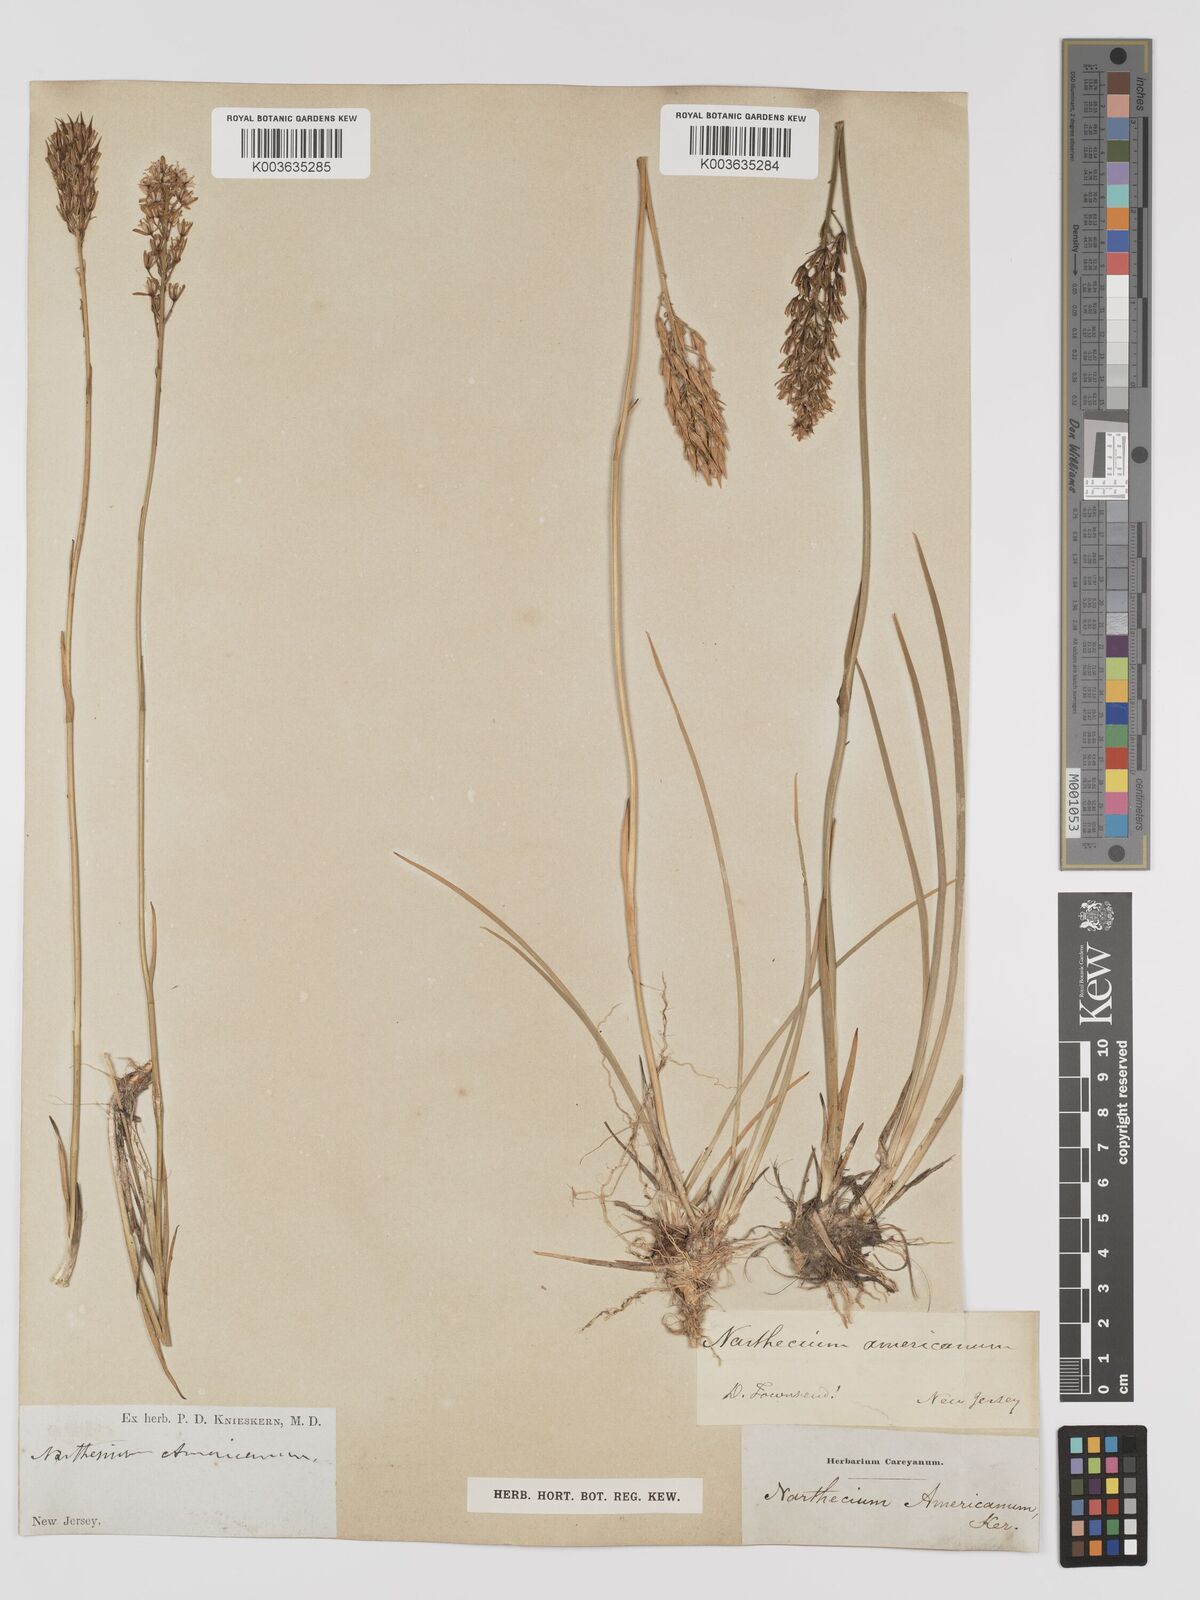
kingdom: Plantae
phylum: Tracheophyta
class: Liliopsida
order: Dioscoreales
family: Nartheciaceae
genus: Narthecium
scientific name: Narthecium americanum
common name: Bog-asphodel
